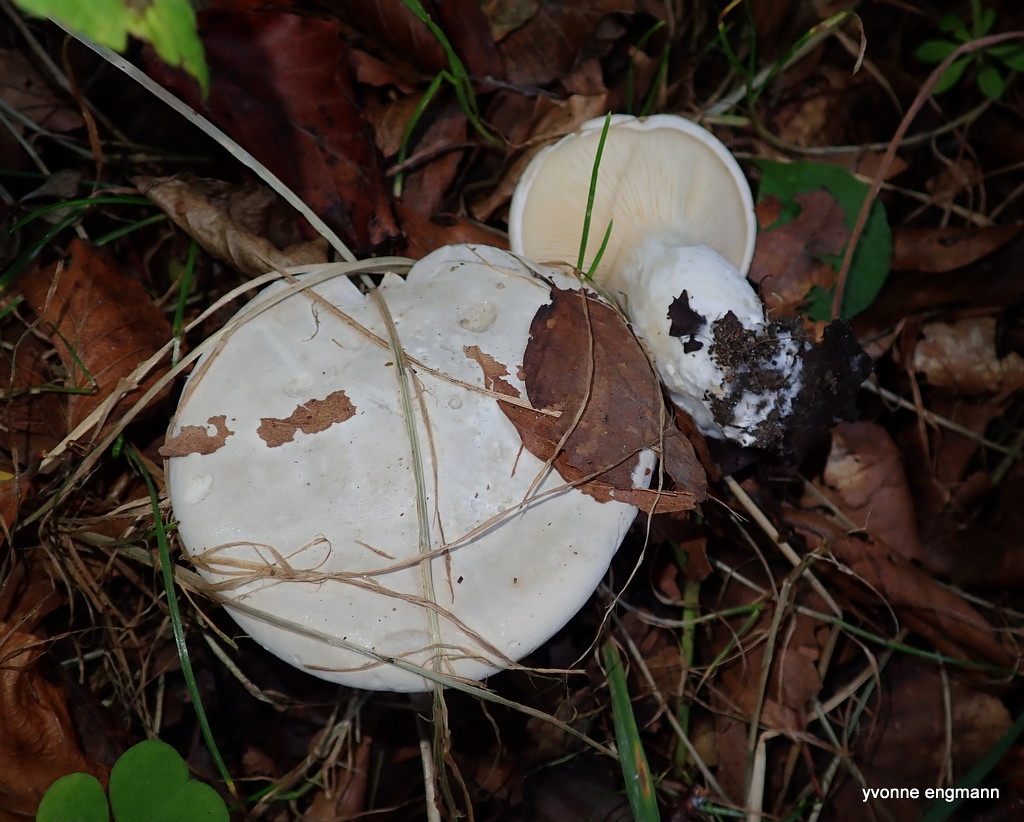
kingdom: Fungi
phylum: Basidiomycota
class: Agaricomycetes
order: Agaricales
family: Entolomataceae
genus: Clitopilus
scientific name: Clitopilus prunulus
